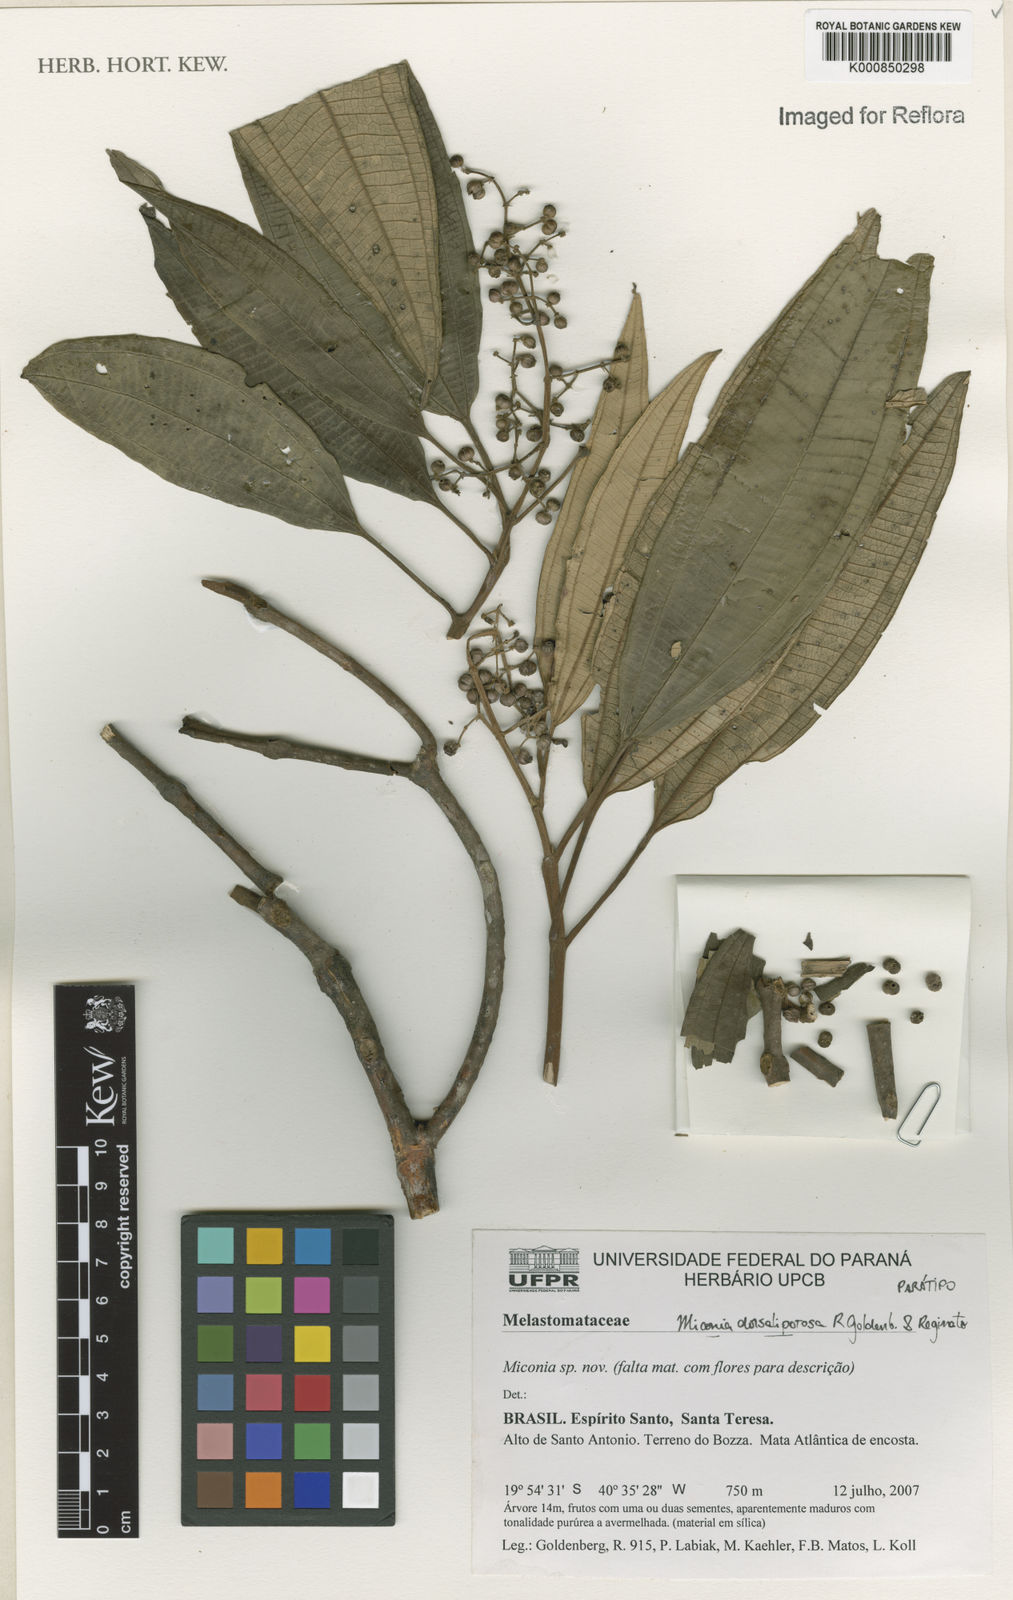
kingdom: Plantae
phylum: Tracheophyta
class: Magnoliopsida
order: Myrtales
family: Melastomataceae
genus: Miconia
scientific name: Miconia dorsaliporosa
